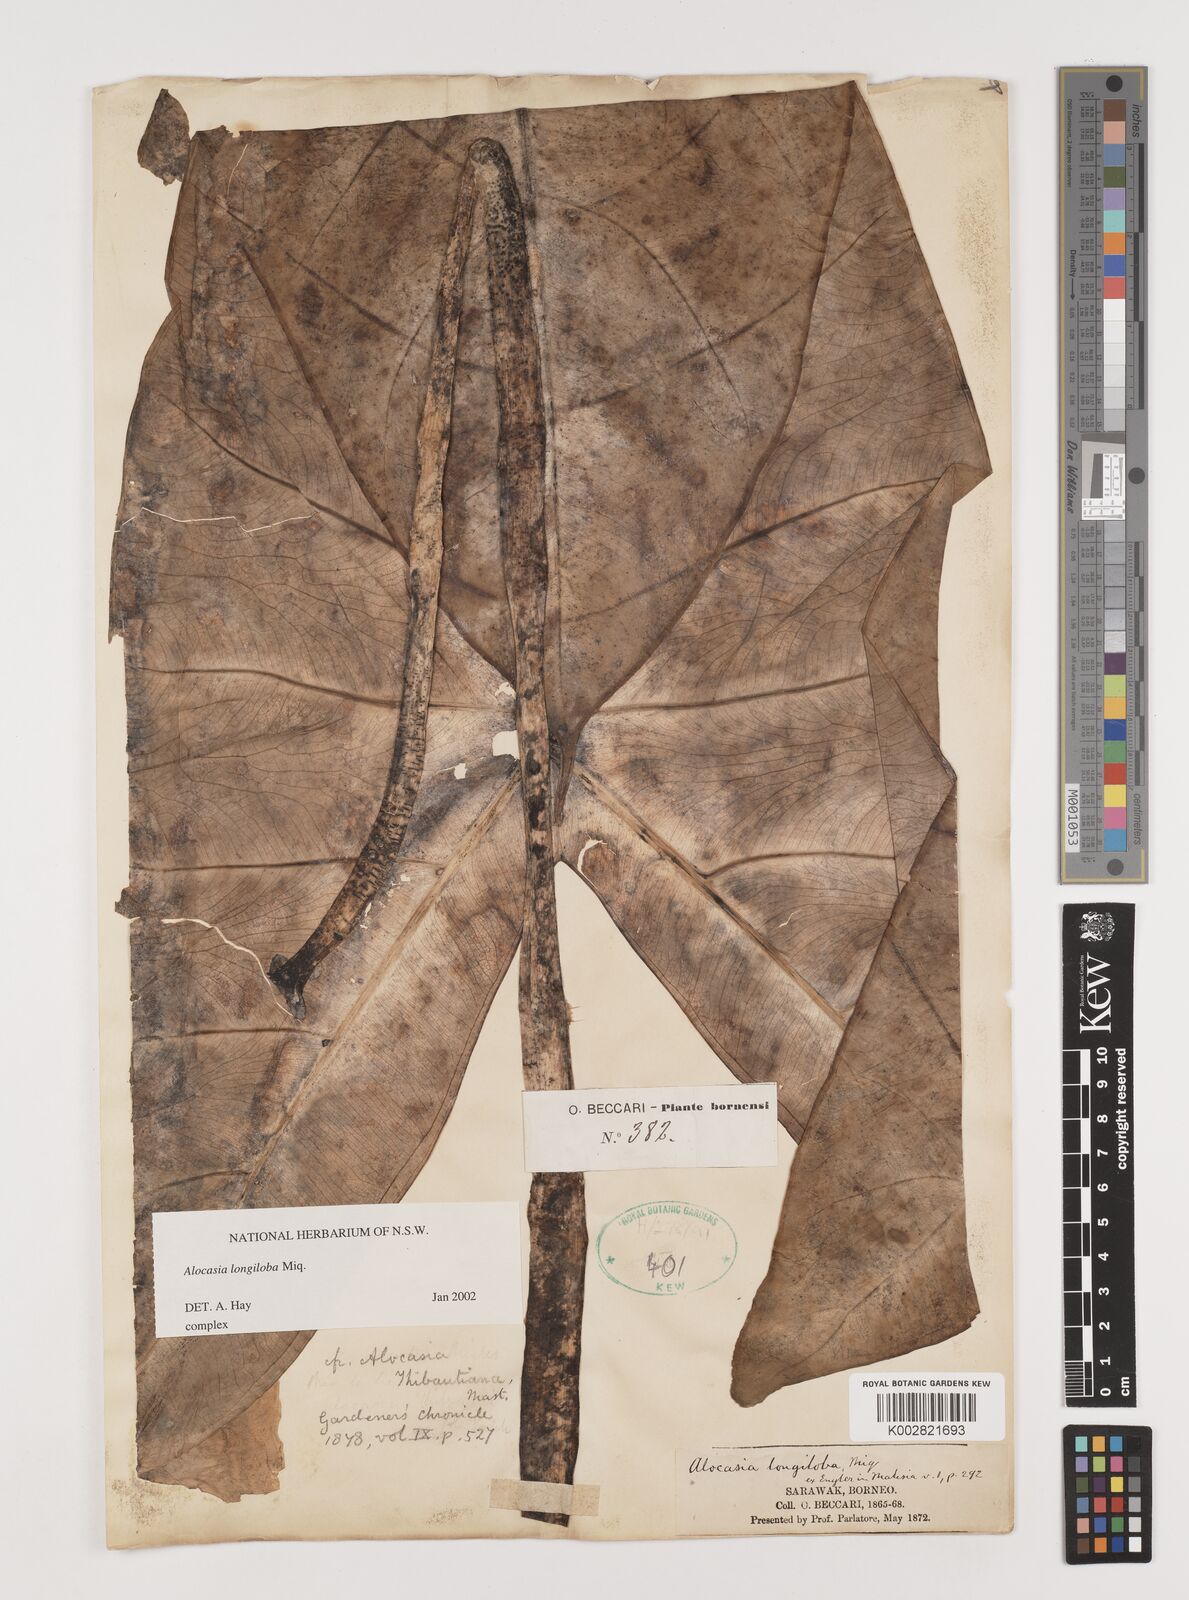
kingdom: Plantae
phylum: Tracheophyta
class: Liliopsida
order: Alismatales
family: Araceae
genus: Alocasia
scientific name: Alocasia longiloba
